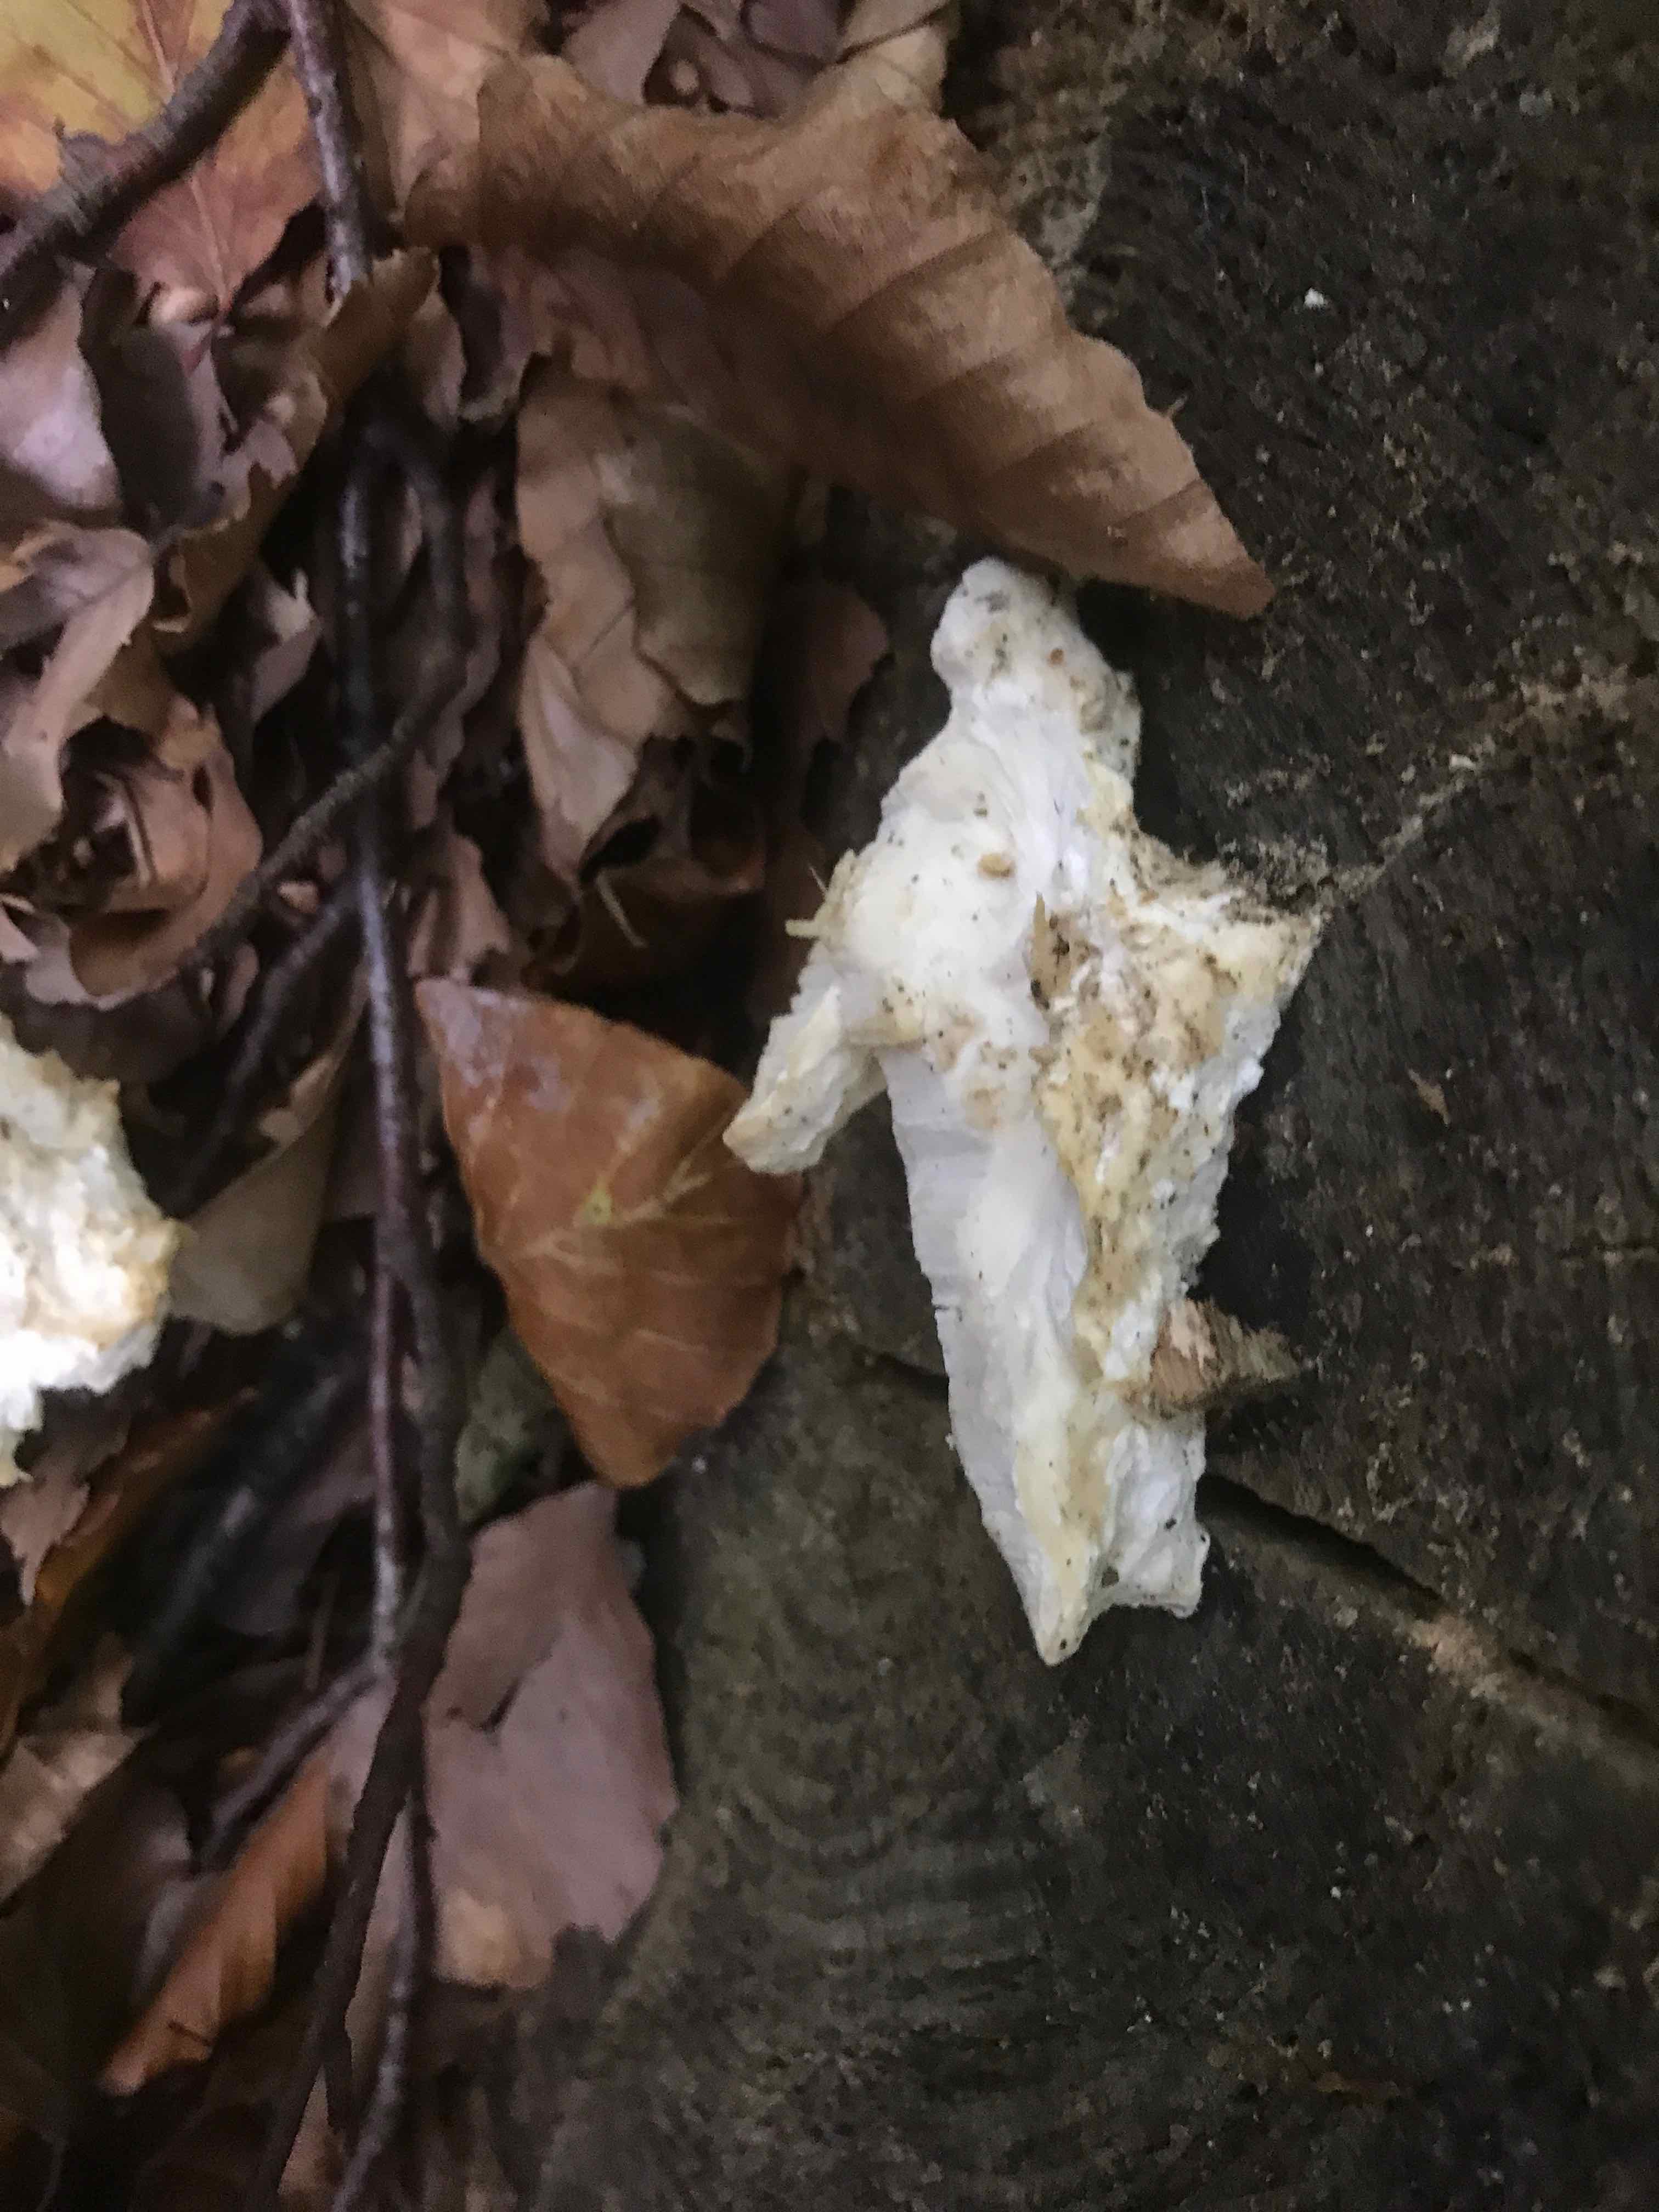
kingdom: Fungi
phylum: Basidiomycota
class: Agaricomycetes
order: Polyporales
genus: Amaropostia
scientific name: Amaropostia stiptica
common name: bitter kødporesvamp
